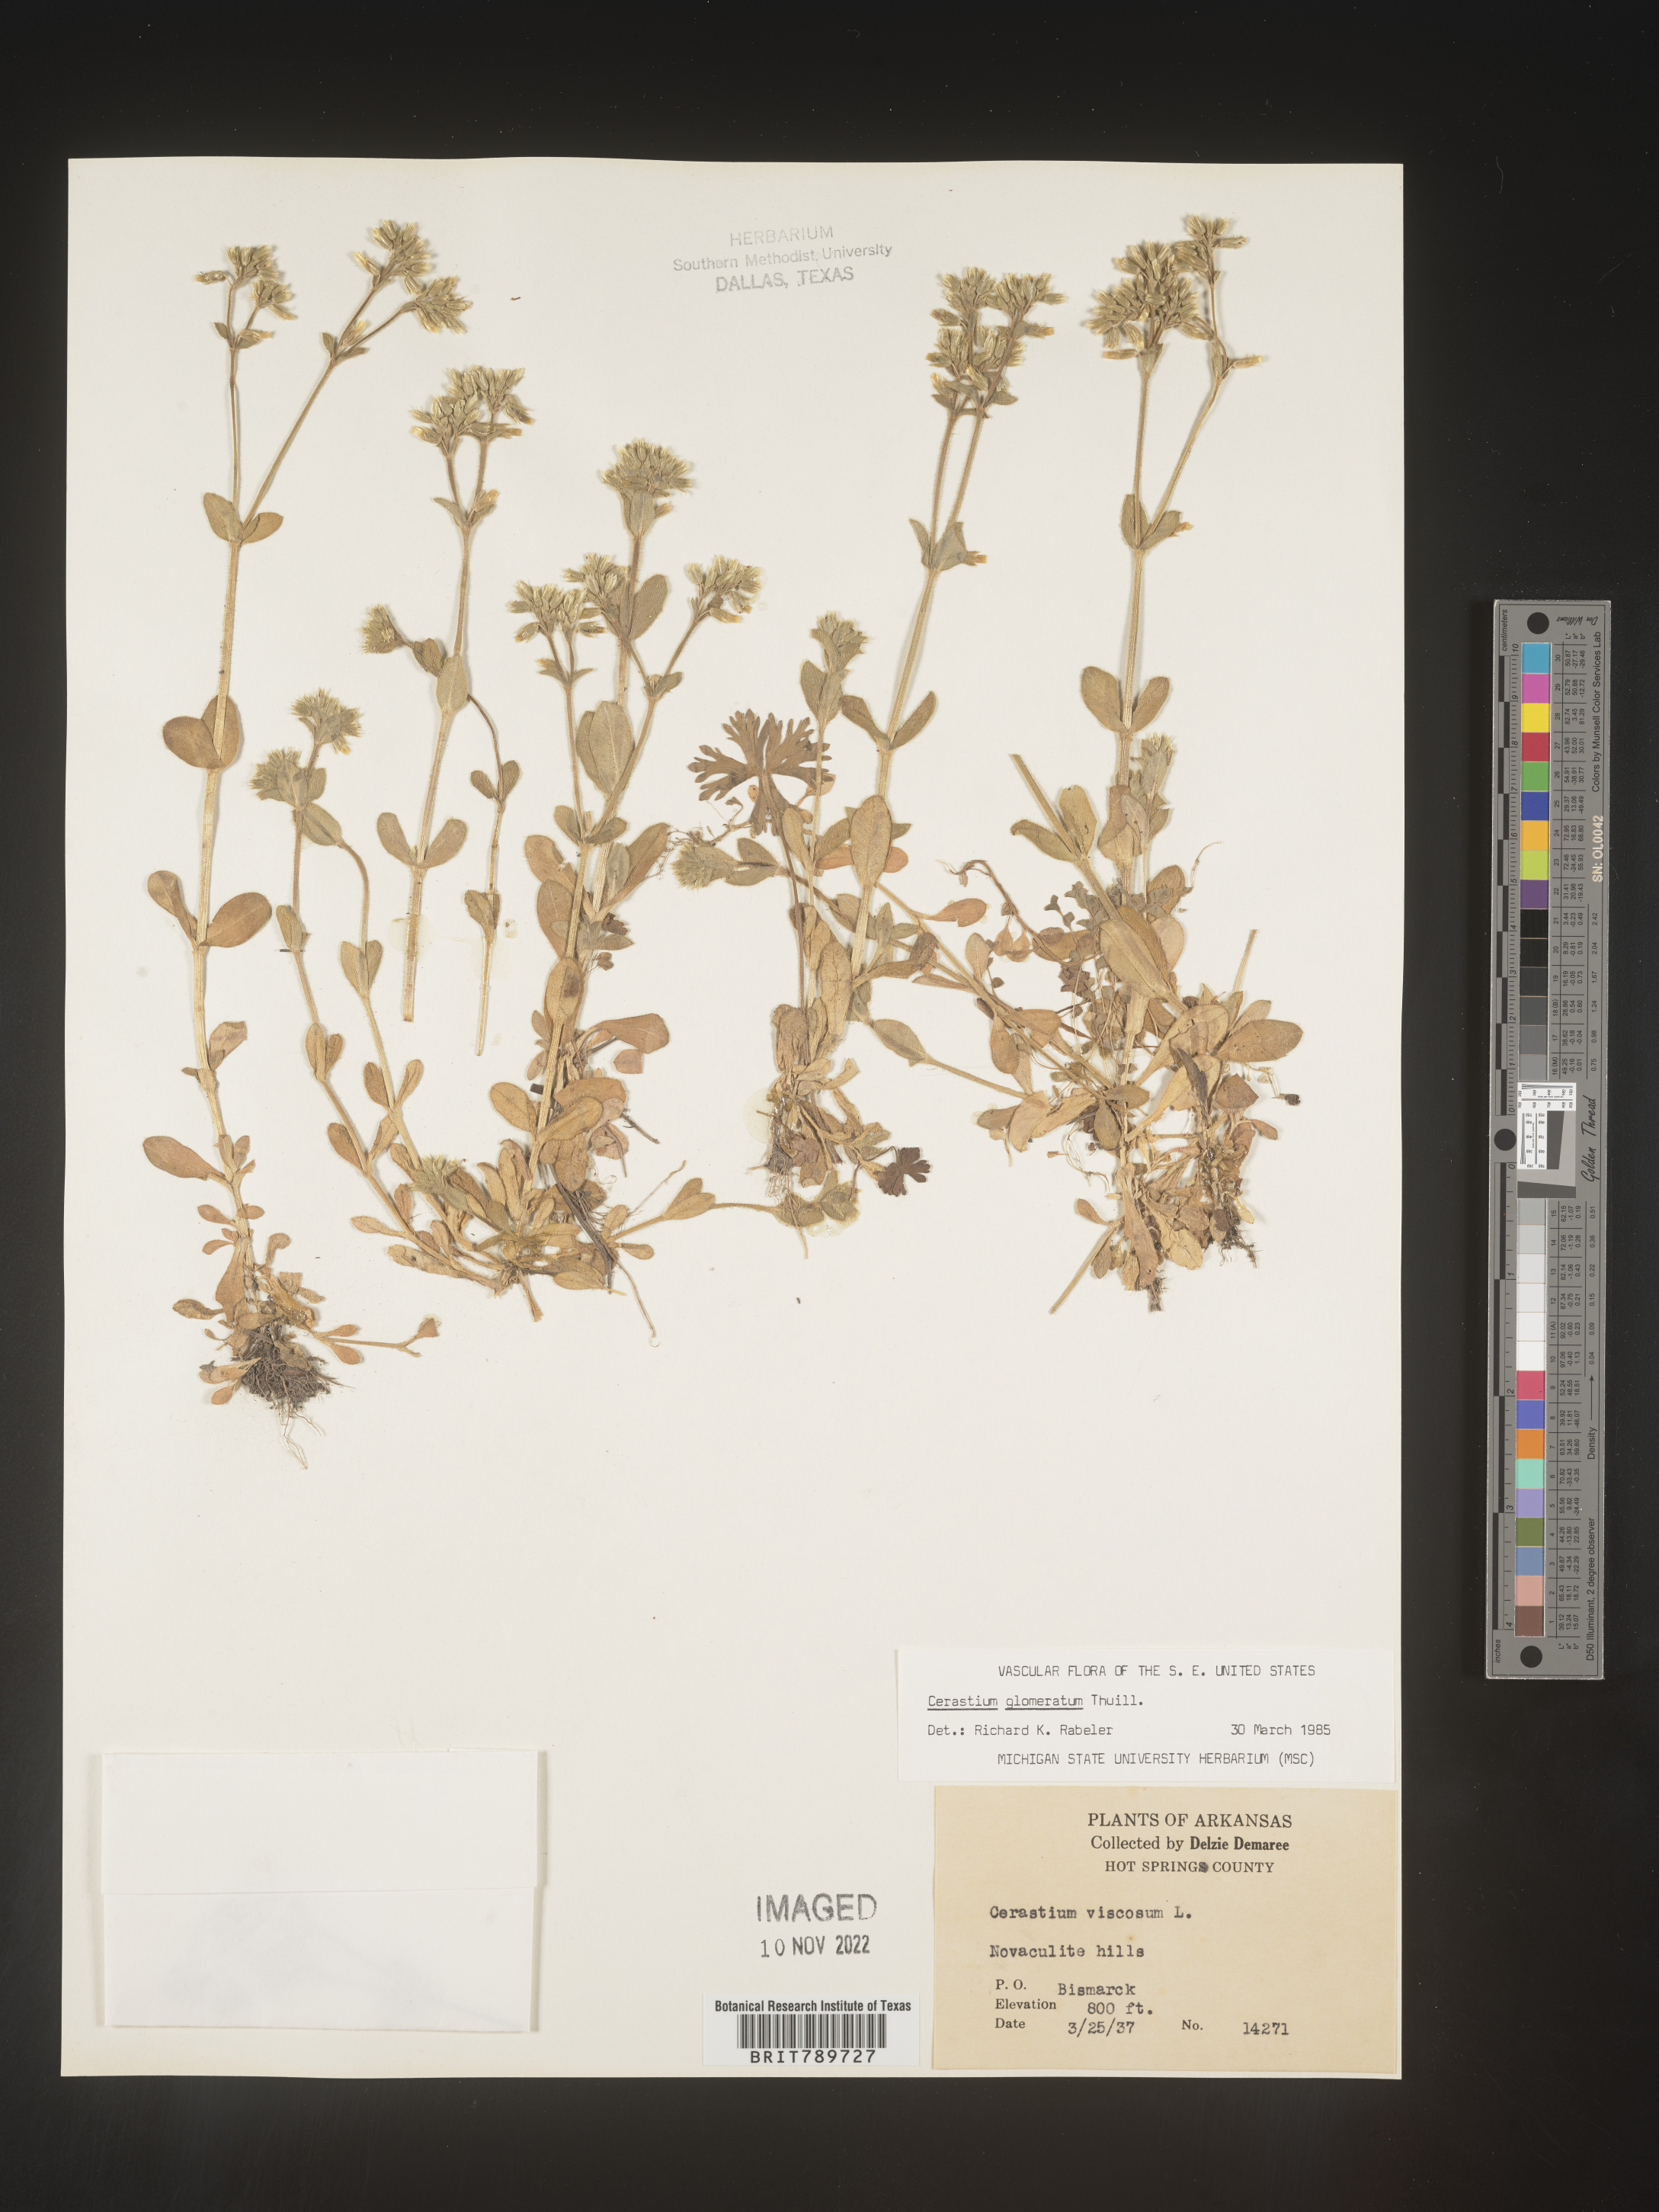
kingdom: Plantae
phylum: Tracheophyta
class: Magnoliopsida
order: Caryophyllales
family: Caryophyllaceae
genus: Cerastium
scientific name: Cerastium glomeratum
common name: Sticky chickweed
